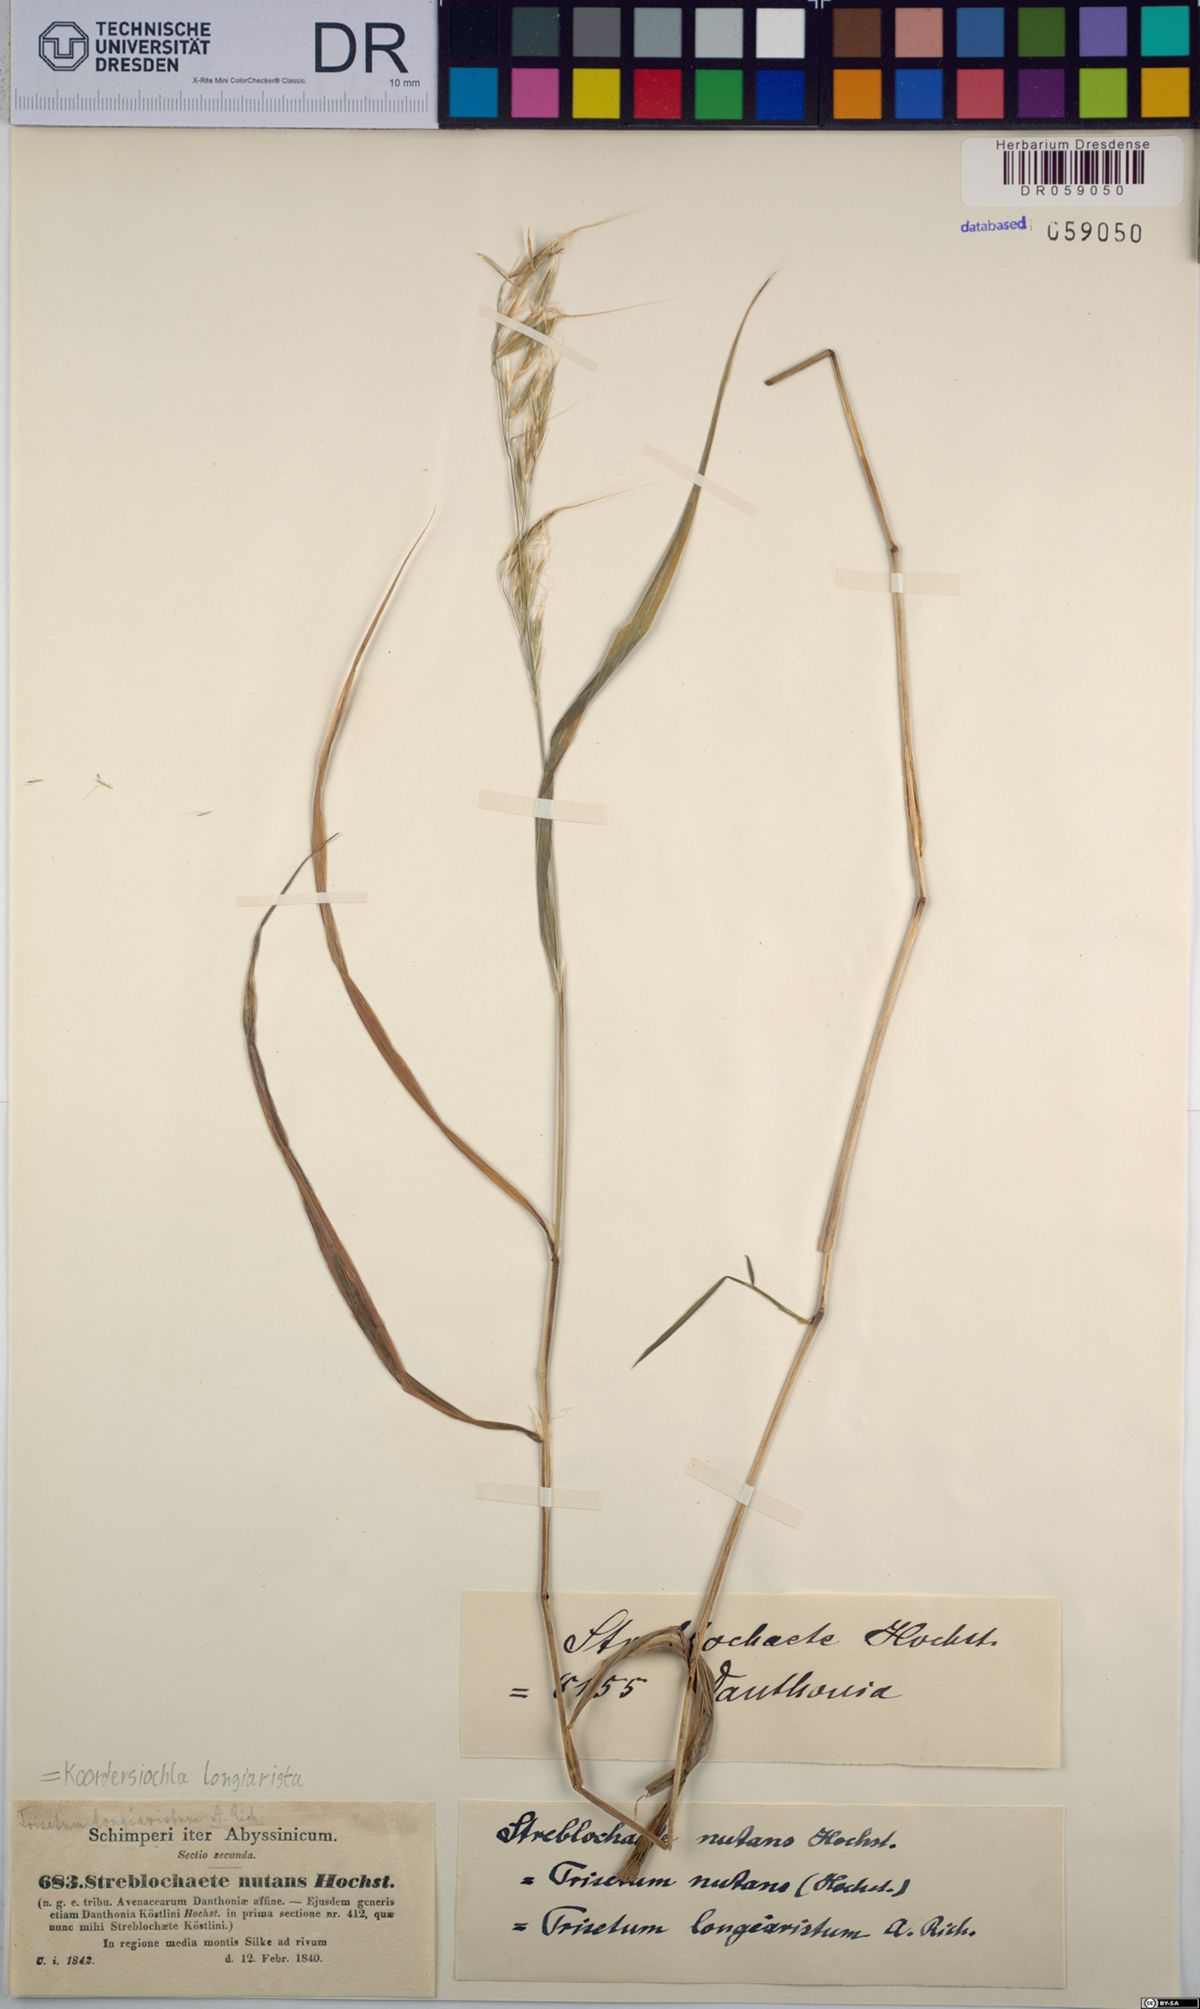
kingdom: Plantae
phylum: Tracheophyta
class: Liliopsida
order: Poales
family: Poaceae
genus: Koordersiochloa
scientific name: Koordersiochloa longiarista
